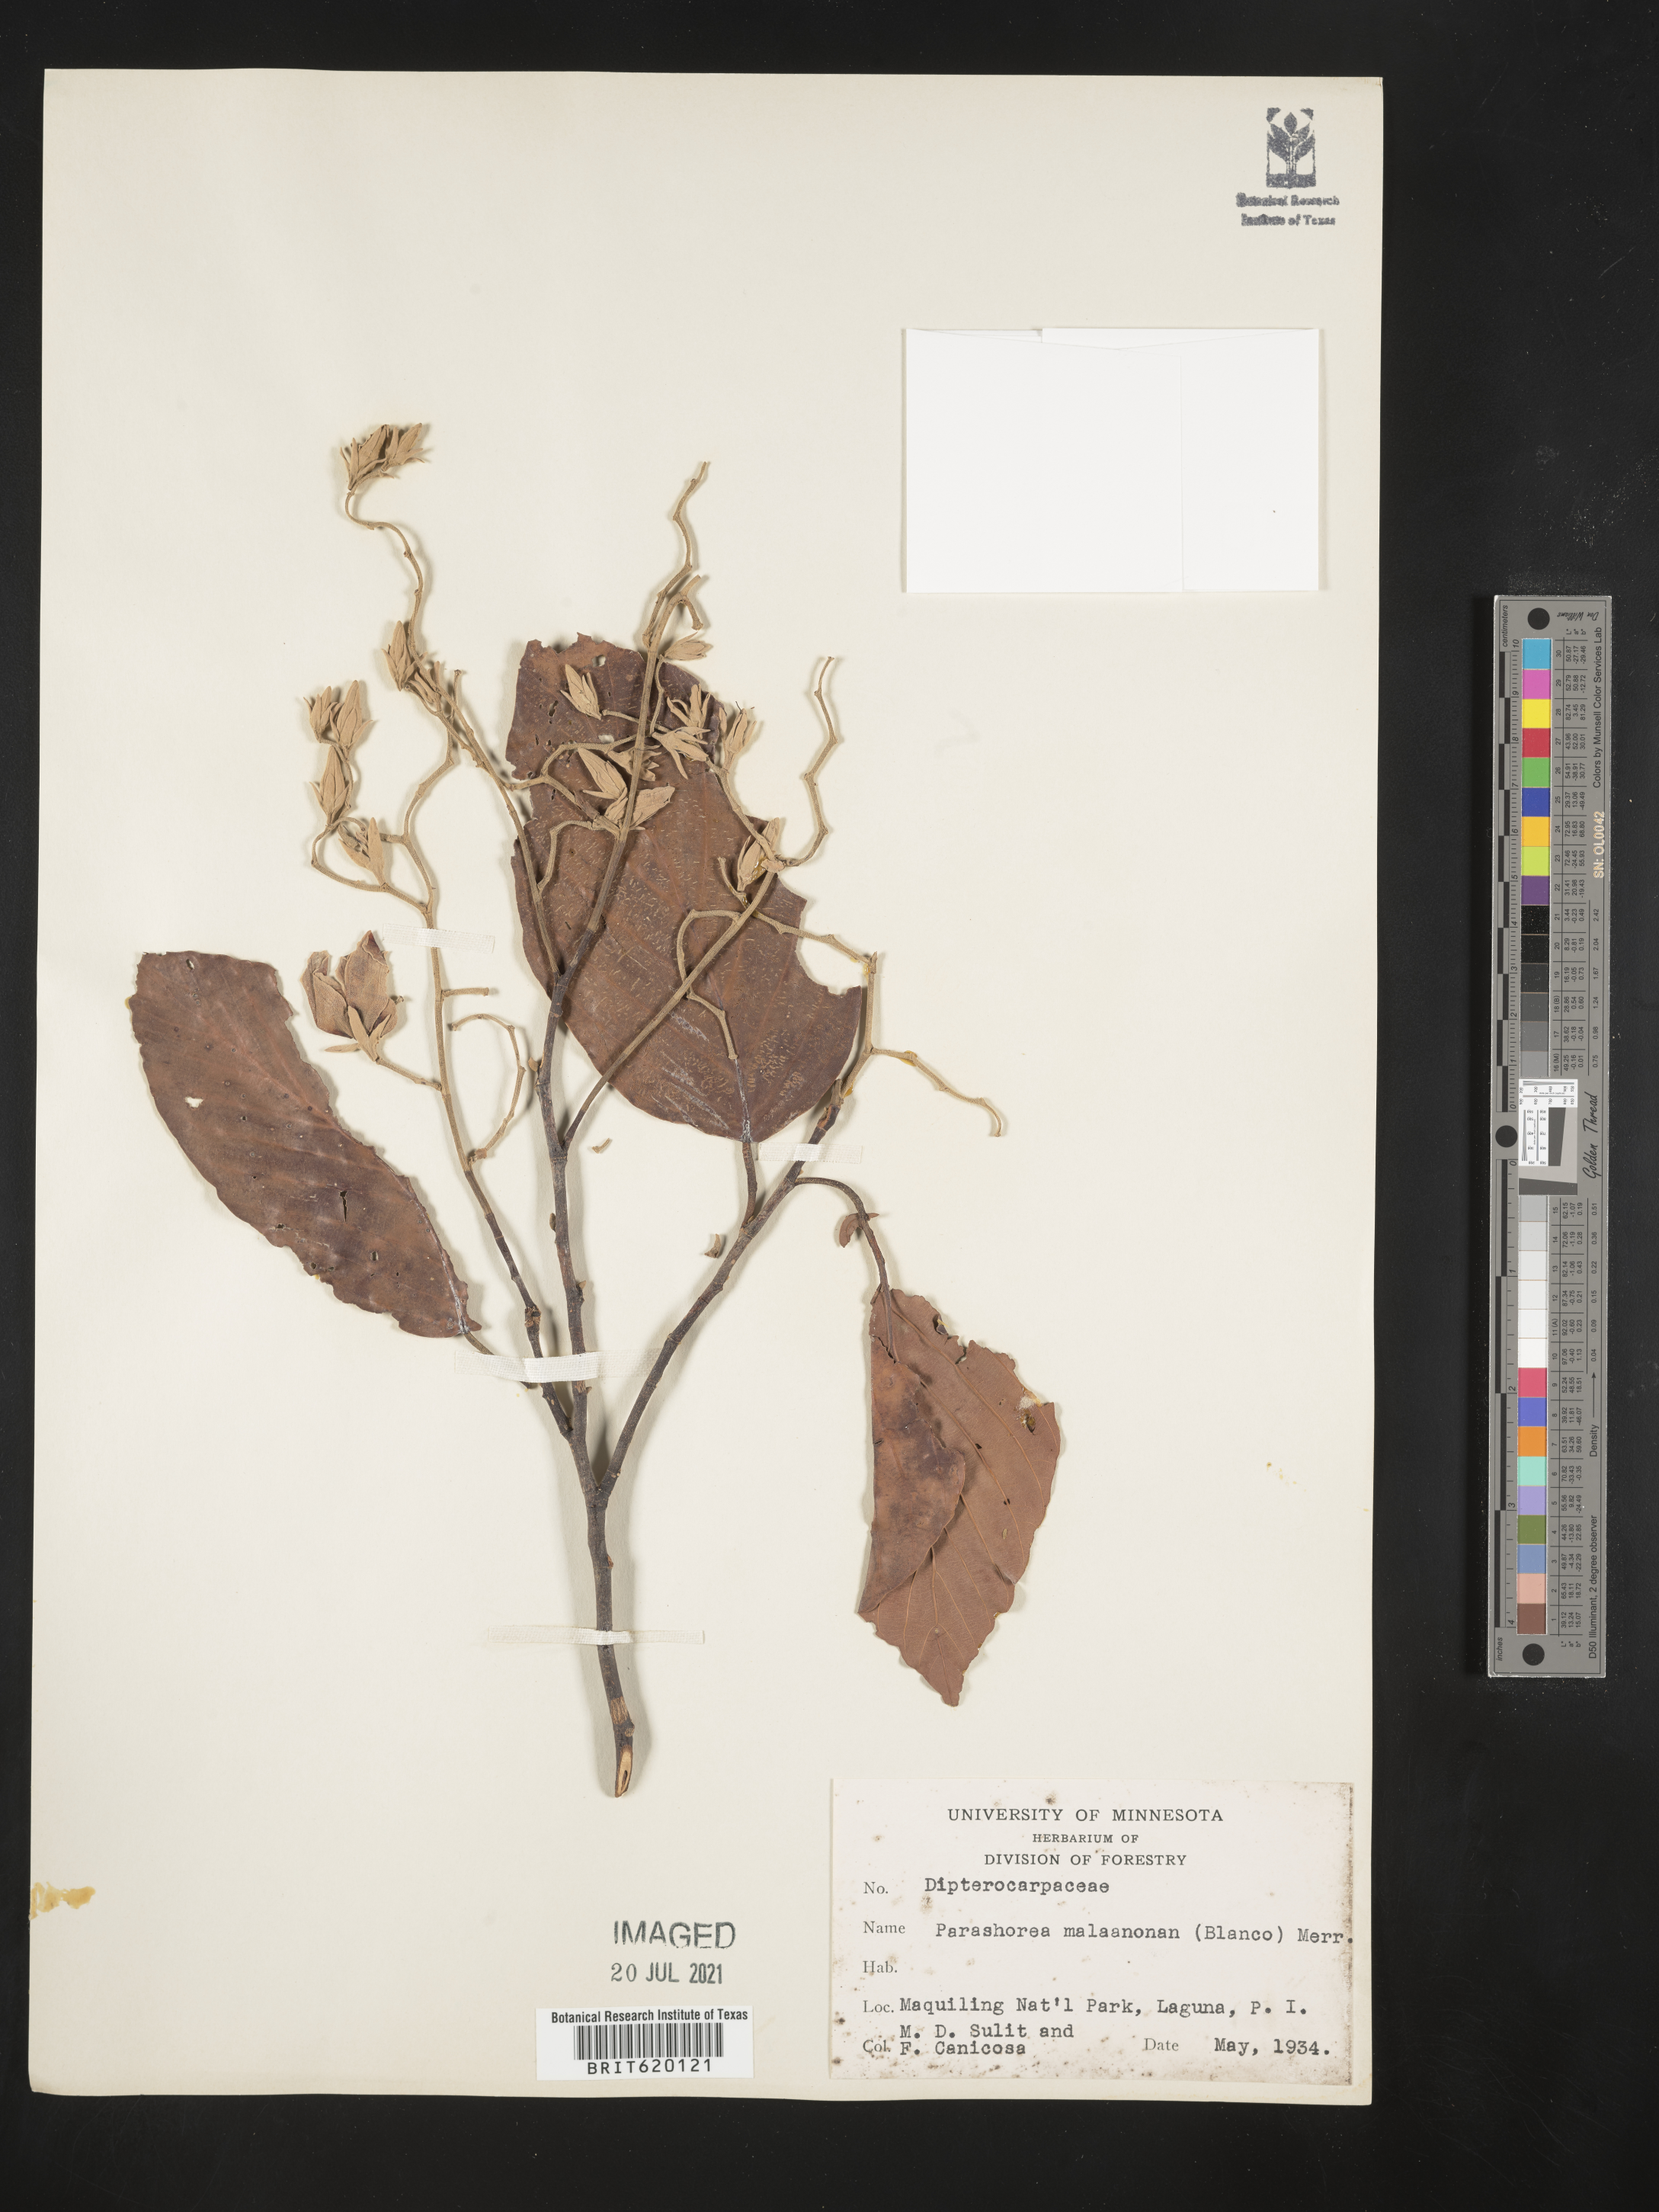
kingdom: Plantae
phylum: Tracheophyta
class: Magnoliopsida
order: Malvales
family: Dipterocarpaceae
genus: Parashorea
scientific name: Parashorea malaanonan
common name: White lauan
